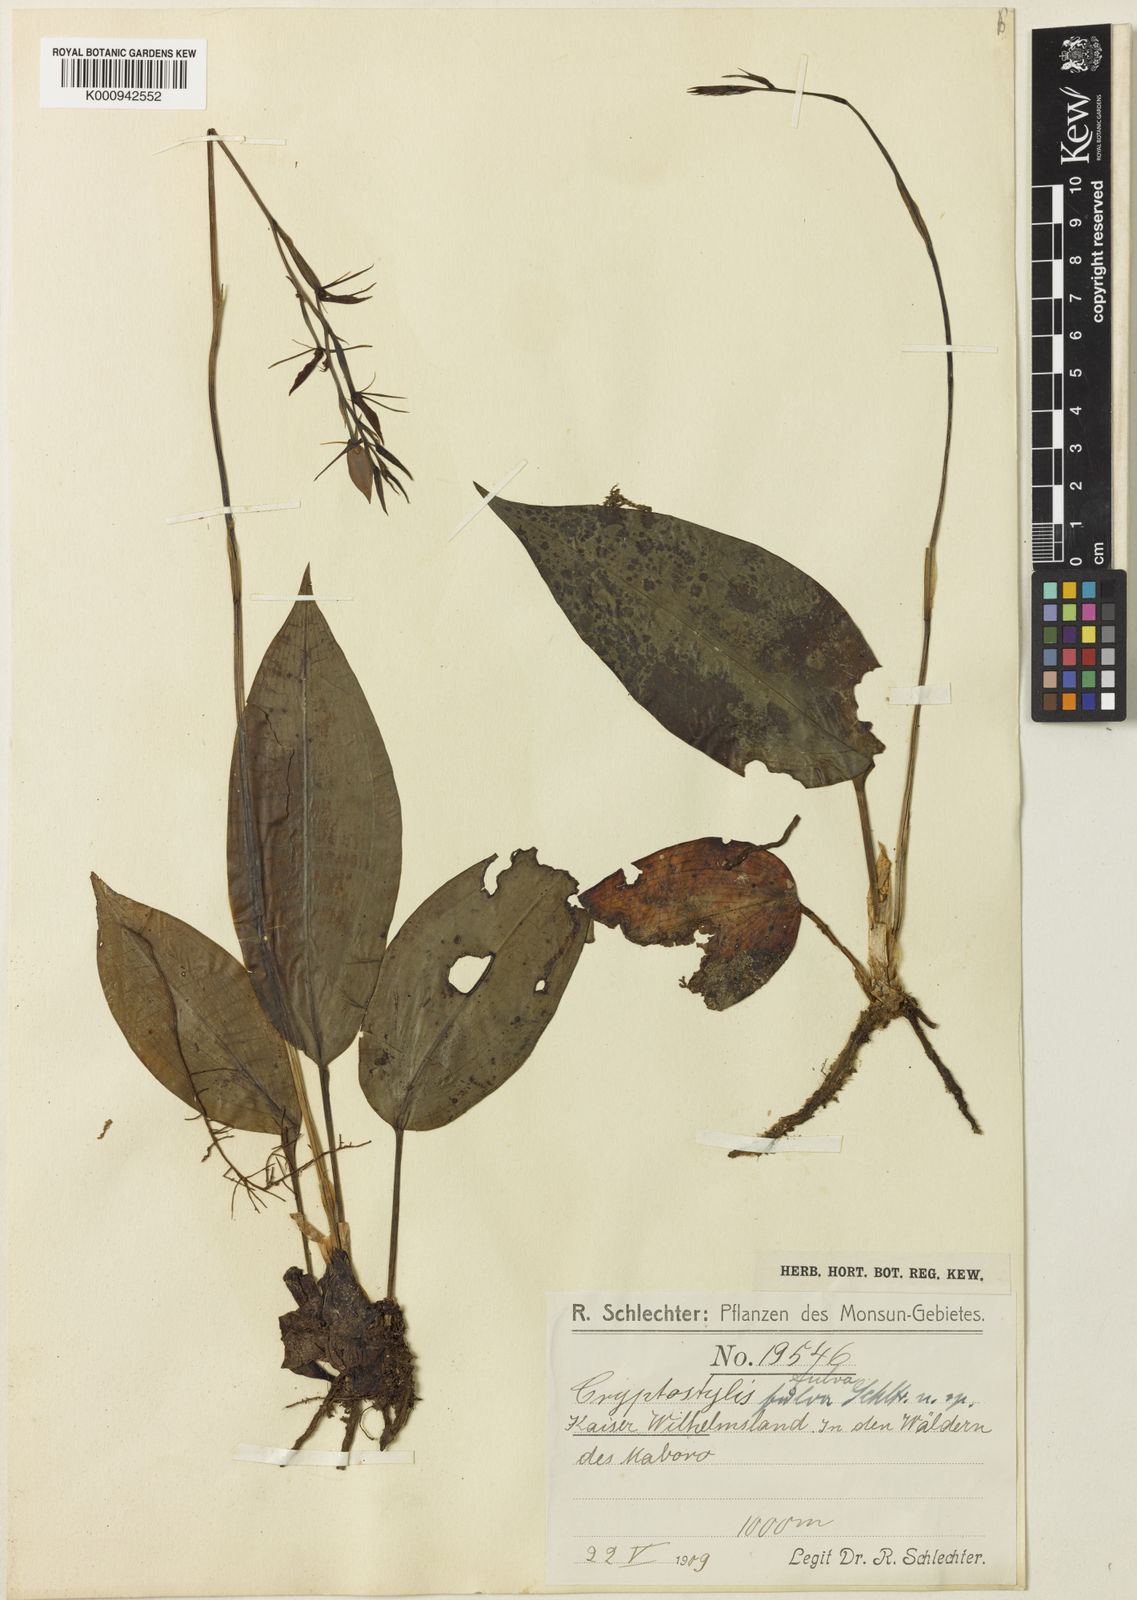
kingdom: Plantae
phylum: Tracheophyta
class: Liliopsida
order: Asparagales
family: Orchidaceae
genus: Cryptostylis
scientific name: Cryptostylis arachnites
